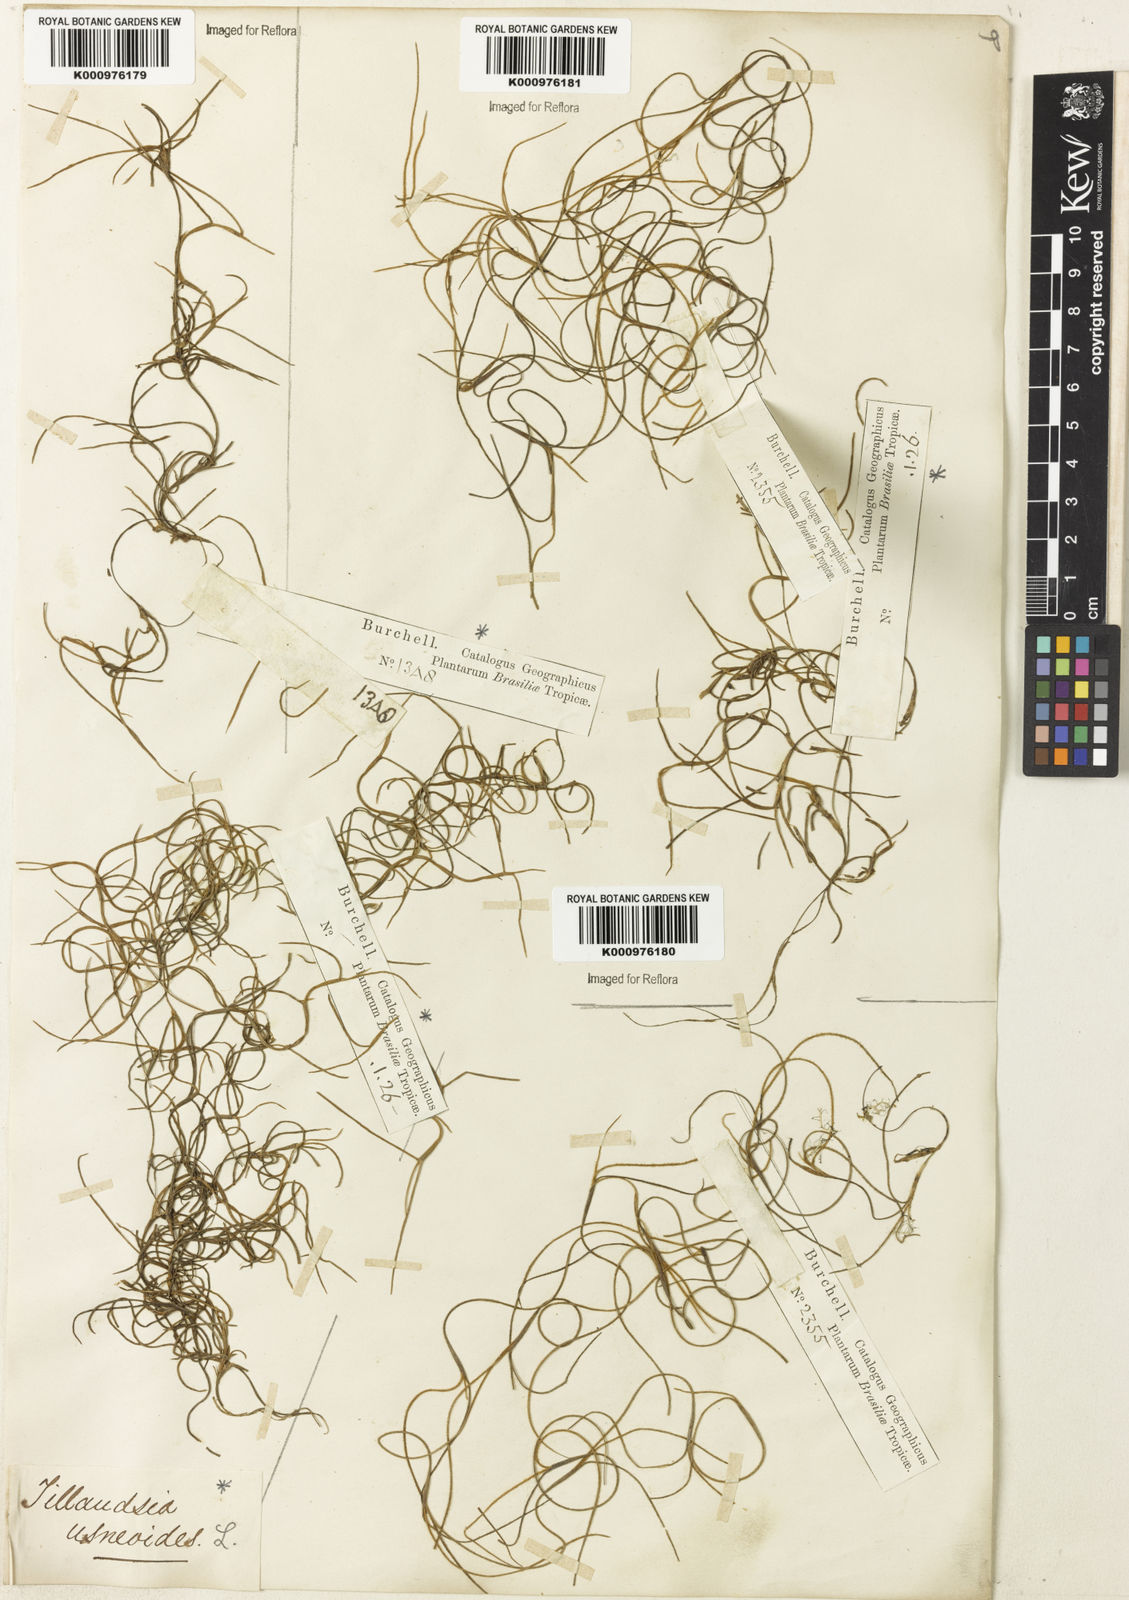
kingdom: Plantae
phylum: Tracheophyta
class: Liliopsida
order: Poales
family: Bromeliaceae
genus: Tillandsia
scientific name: Tillandsia usneoides
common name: Spanish moss
